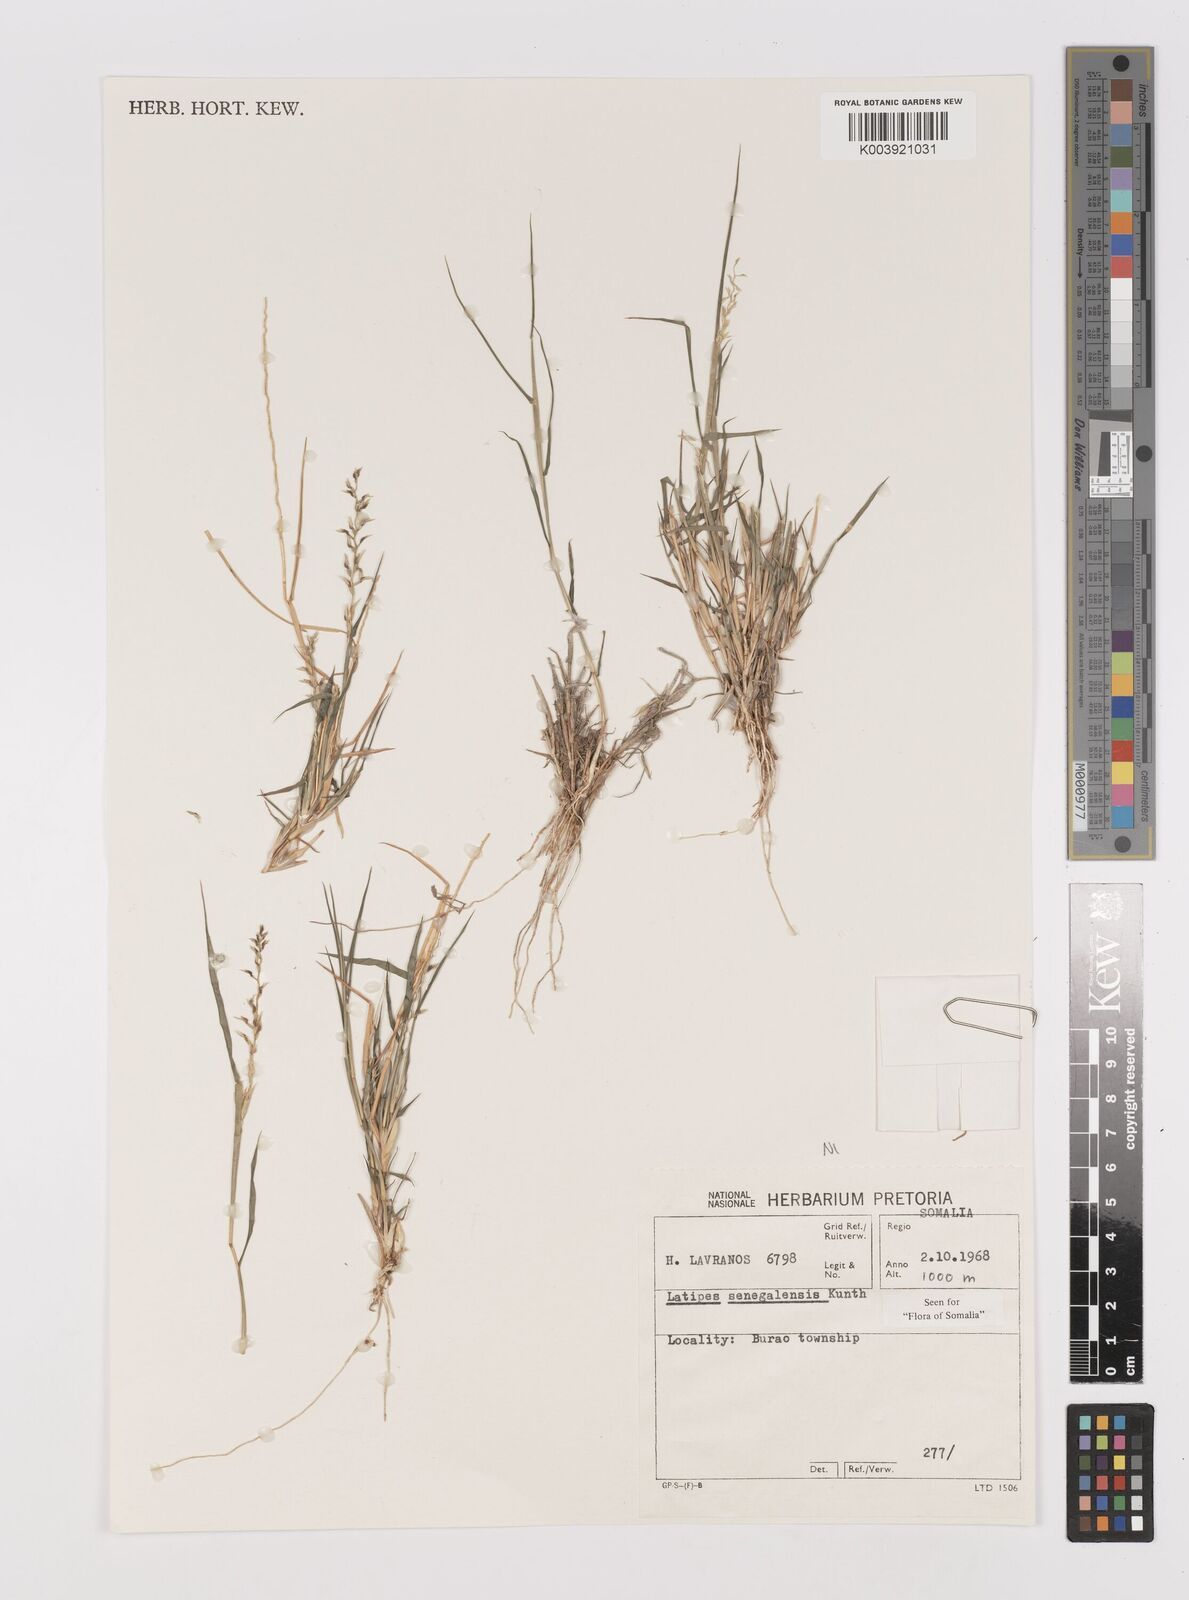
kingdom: Plantae
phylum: Tracheophyta
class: Liliopsida
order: Poales
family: Poaceae
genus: Leptothrium
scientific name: Leptothrium senegalense
